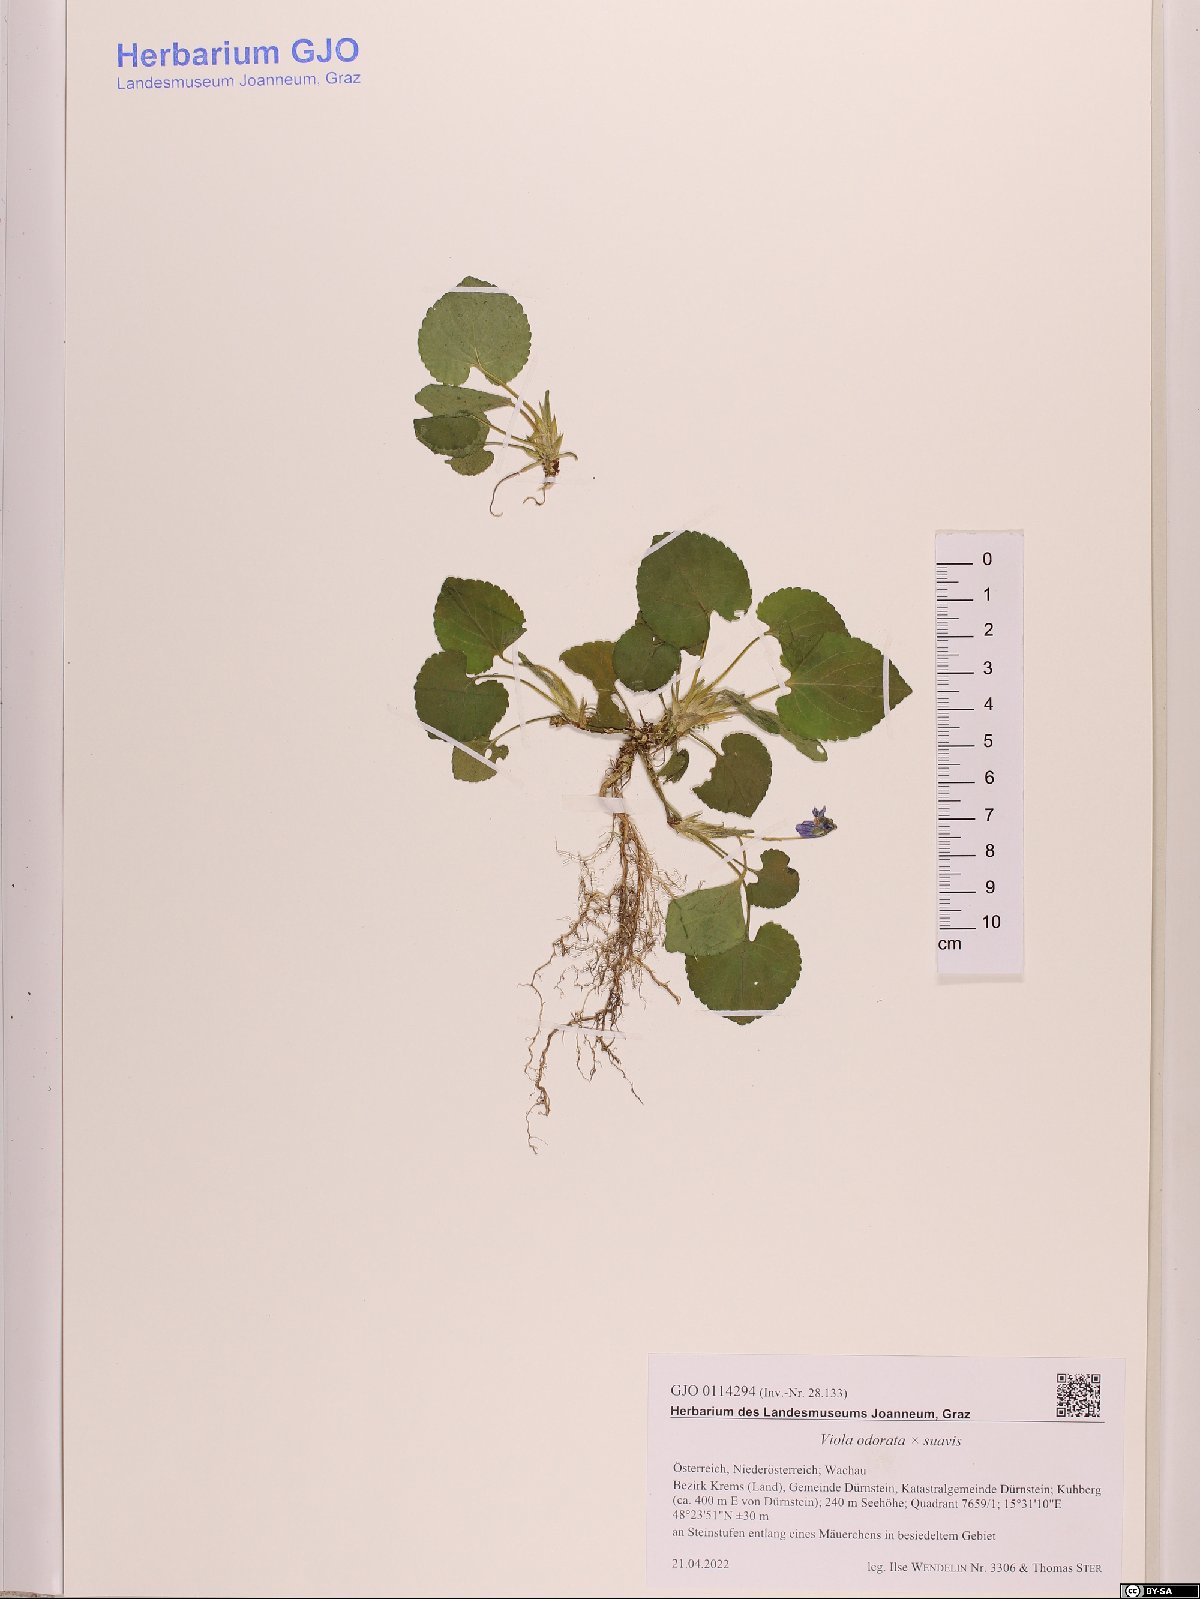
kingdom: Plantae
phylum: Tracheophyta
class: Magnoliopsida
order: Malpighiales
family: Violaceae
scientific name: Violaceae
